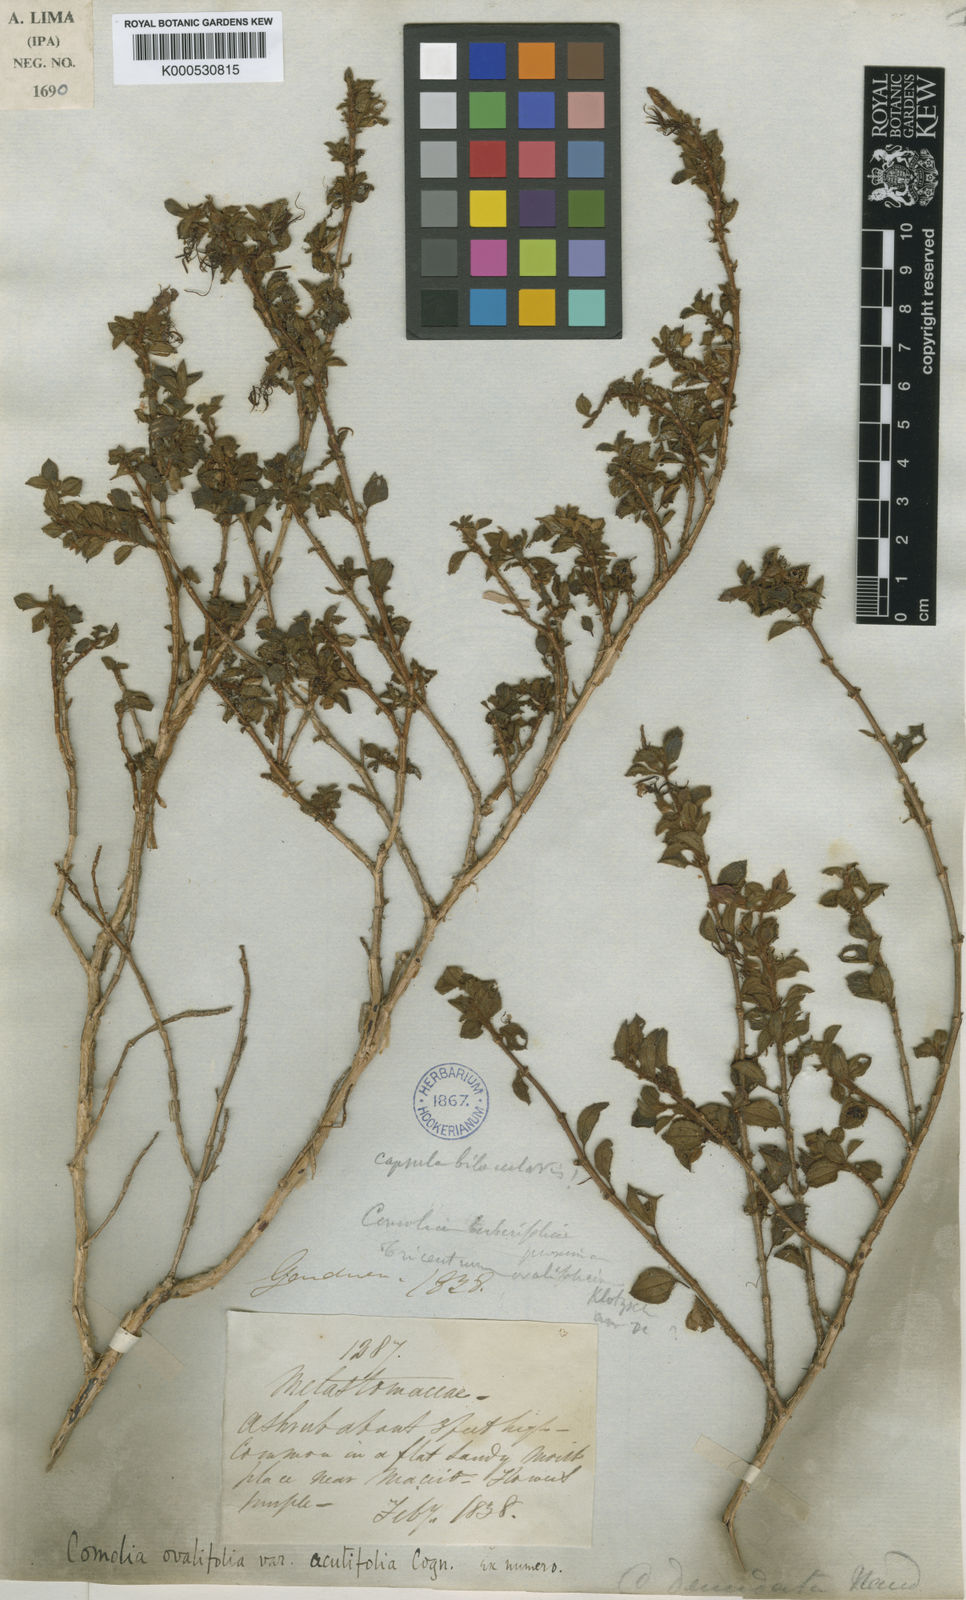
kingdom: Plantae
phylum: Tracheophyta
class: Magnoliopsida
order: Myrtales
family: Melastomataceae
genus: Comolia
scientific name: Comolia ovalifolia
